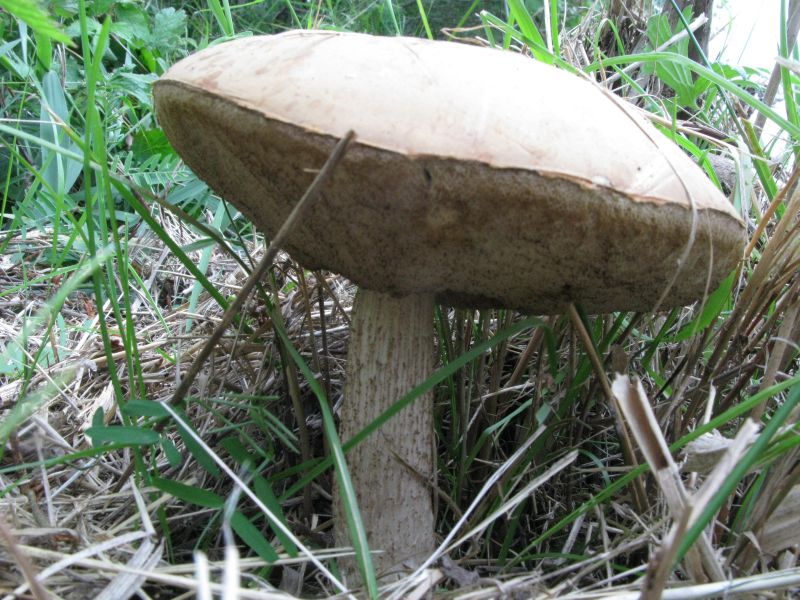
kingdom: Fungi
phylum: Basidiomycota
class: Agaricomycetes
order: Boletales
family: Boletaceae
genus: Leccinum
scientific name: Leccinum cyaneobasileucum
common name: almindelig skælrørhat
